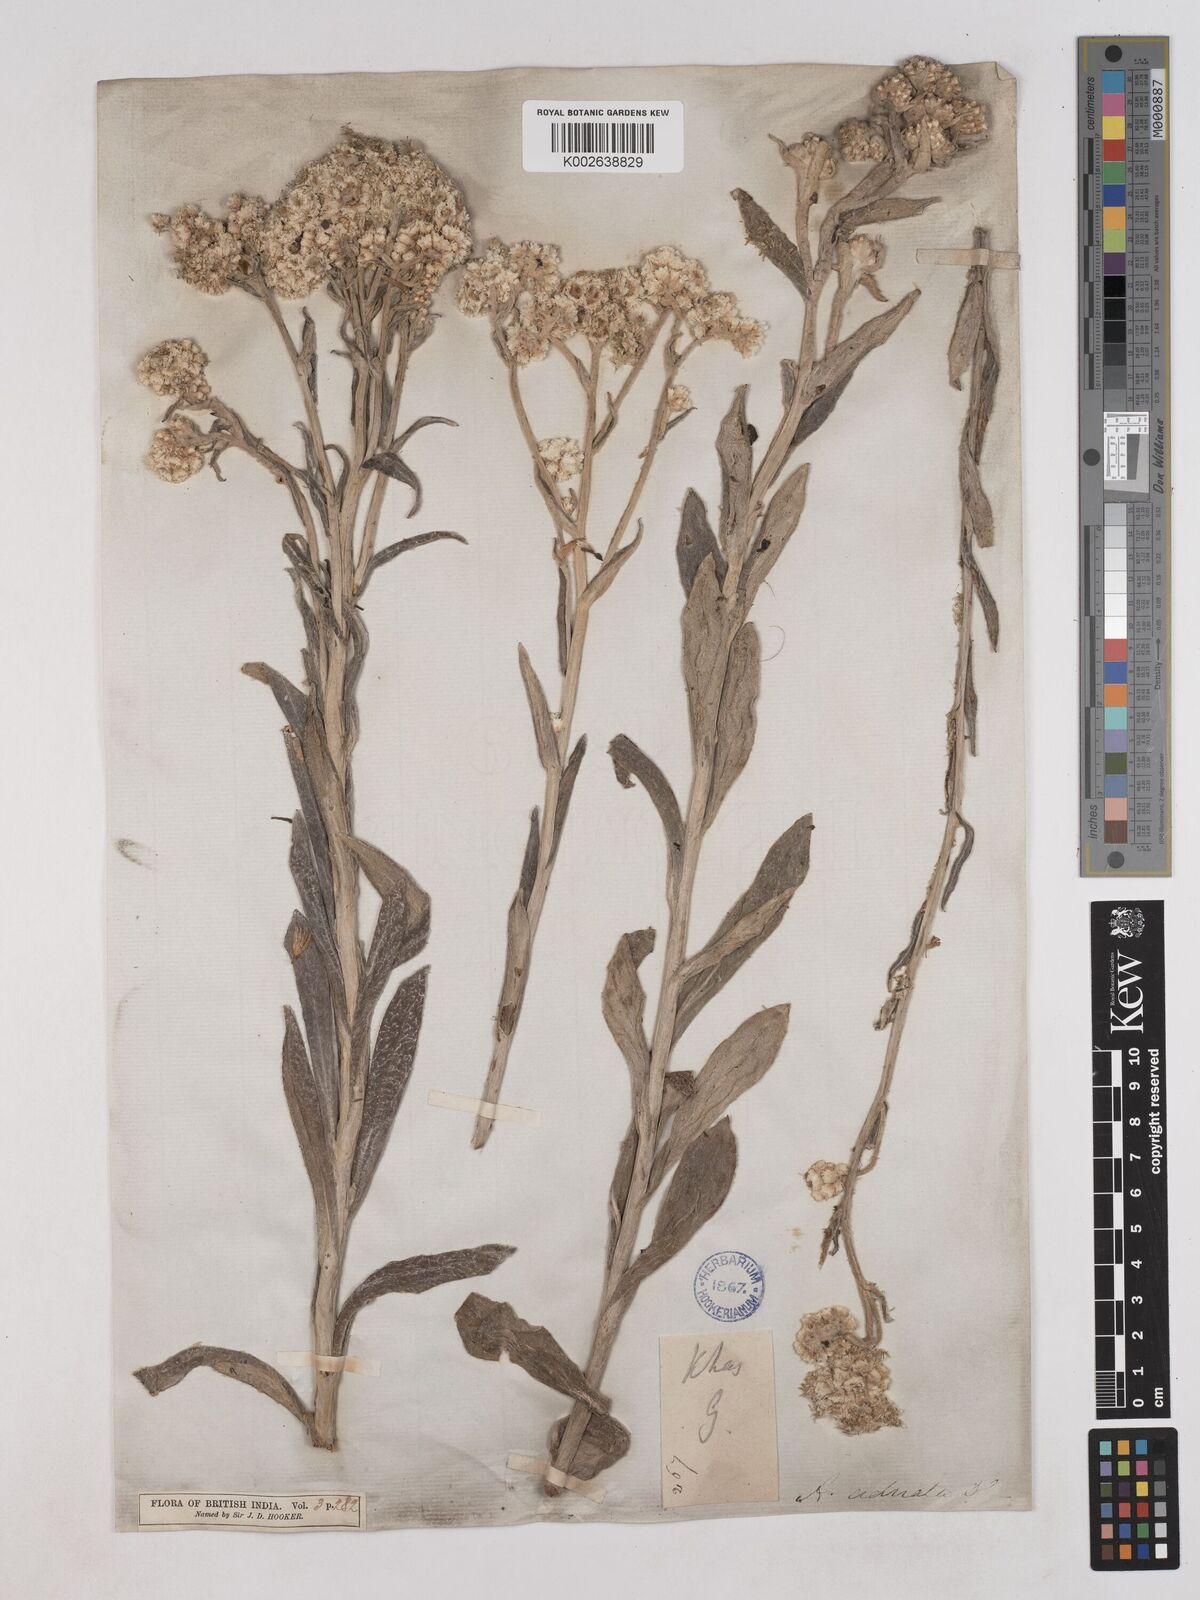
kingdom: Plantae
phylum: Tracheophyta
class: Magnoliopsida
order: Asterales
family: Asteraceae
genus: Pseudognaphalium
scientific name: Pseudognaphalium adnatum
